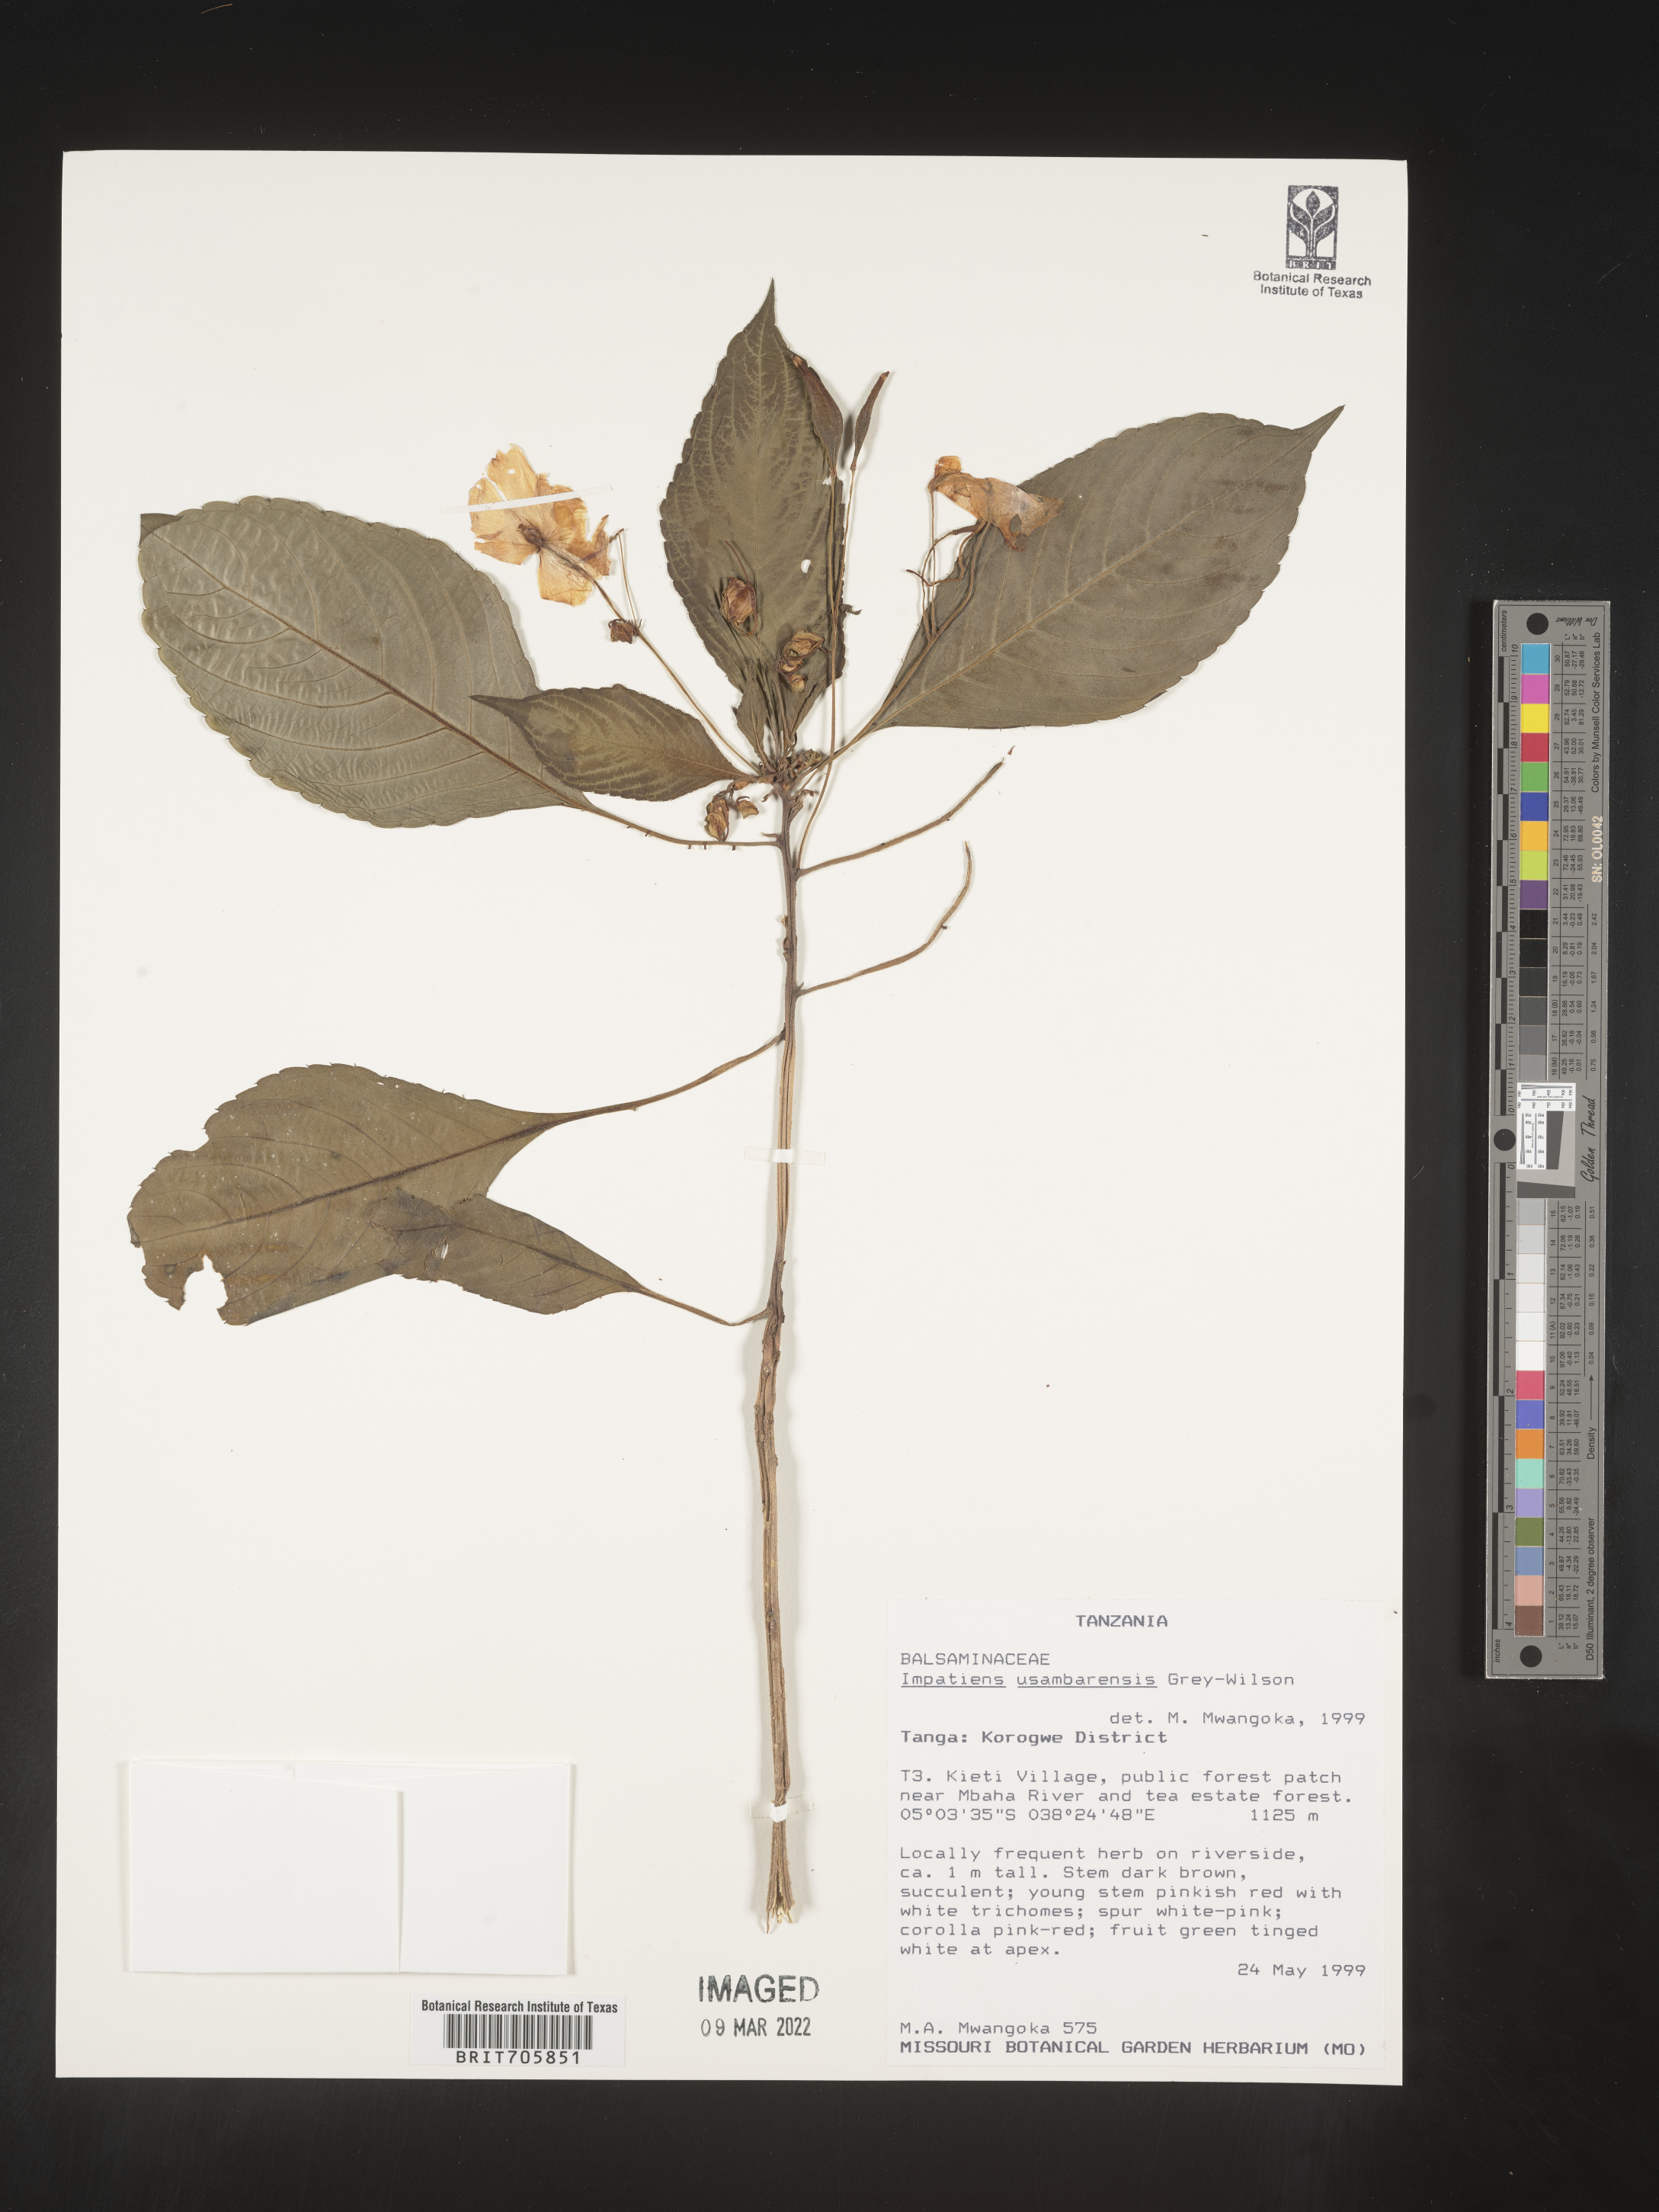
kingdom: Plantae
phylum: Tracheophyta
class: Magnoliopsida
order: Ericales
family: Balsaminaceae
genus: Impatiens
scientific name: Impatiens
